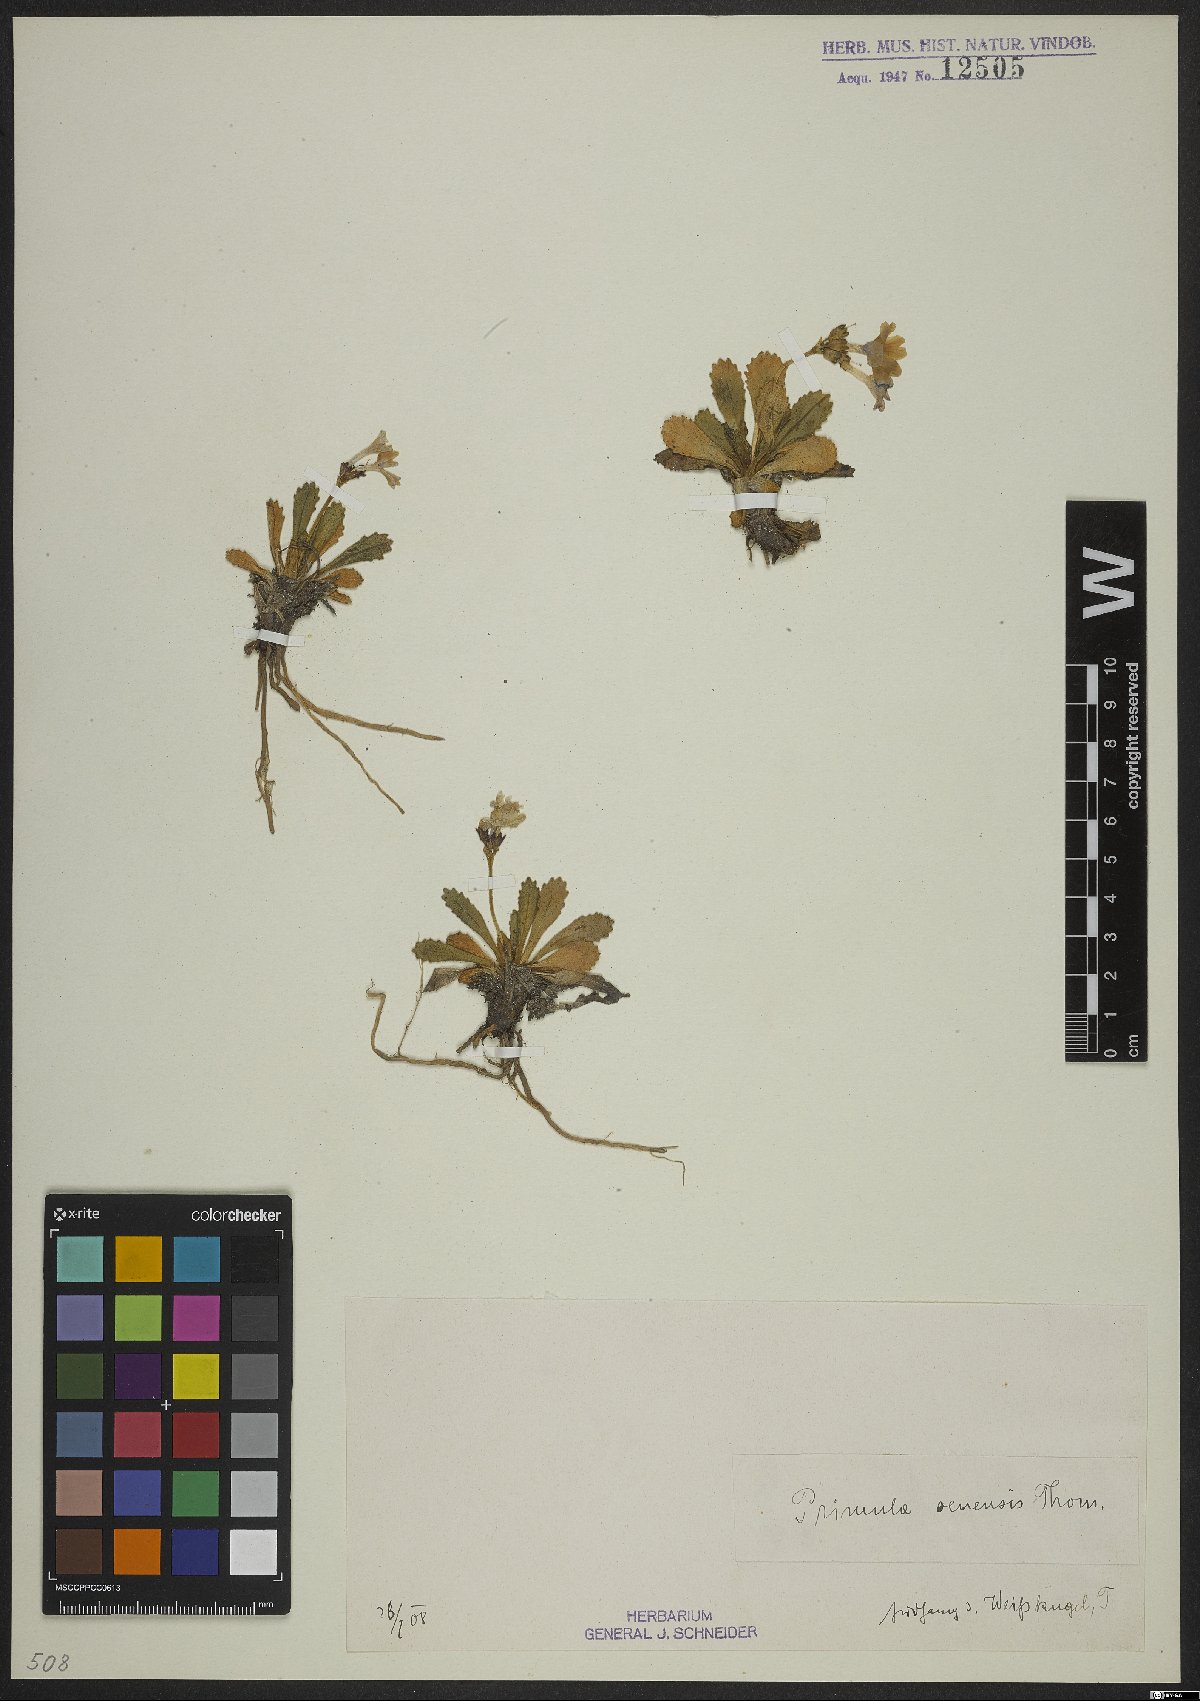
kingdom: Plantae
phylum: Tracheophyta
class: Magnoliopsida
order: Ericales
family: Primulaceae
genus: Primula
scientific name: Primula daonensis
